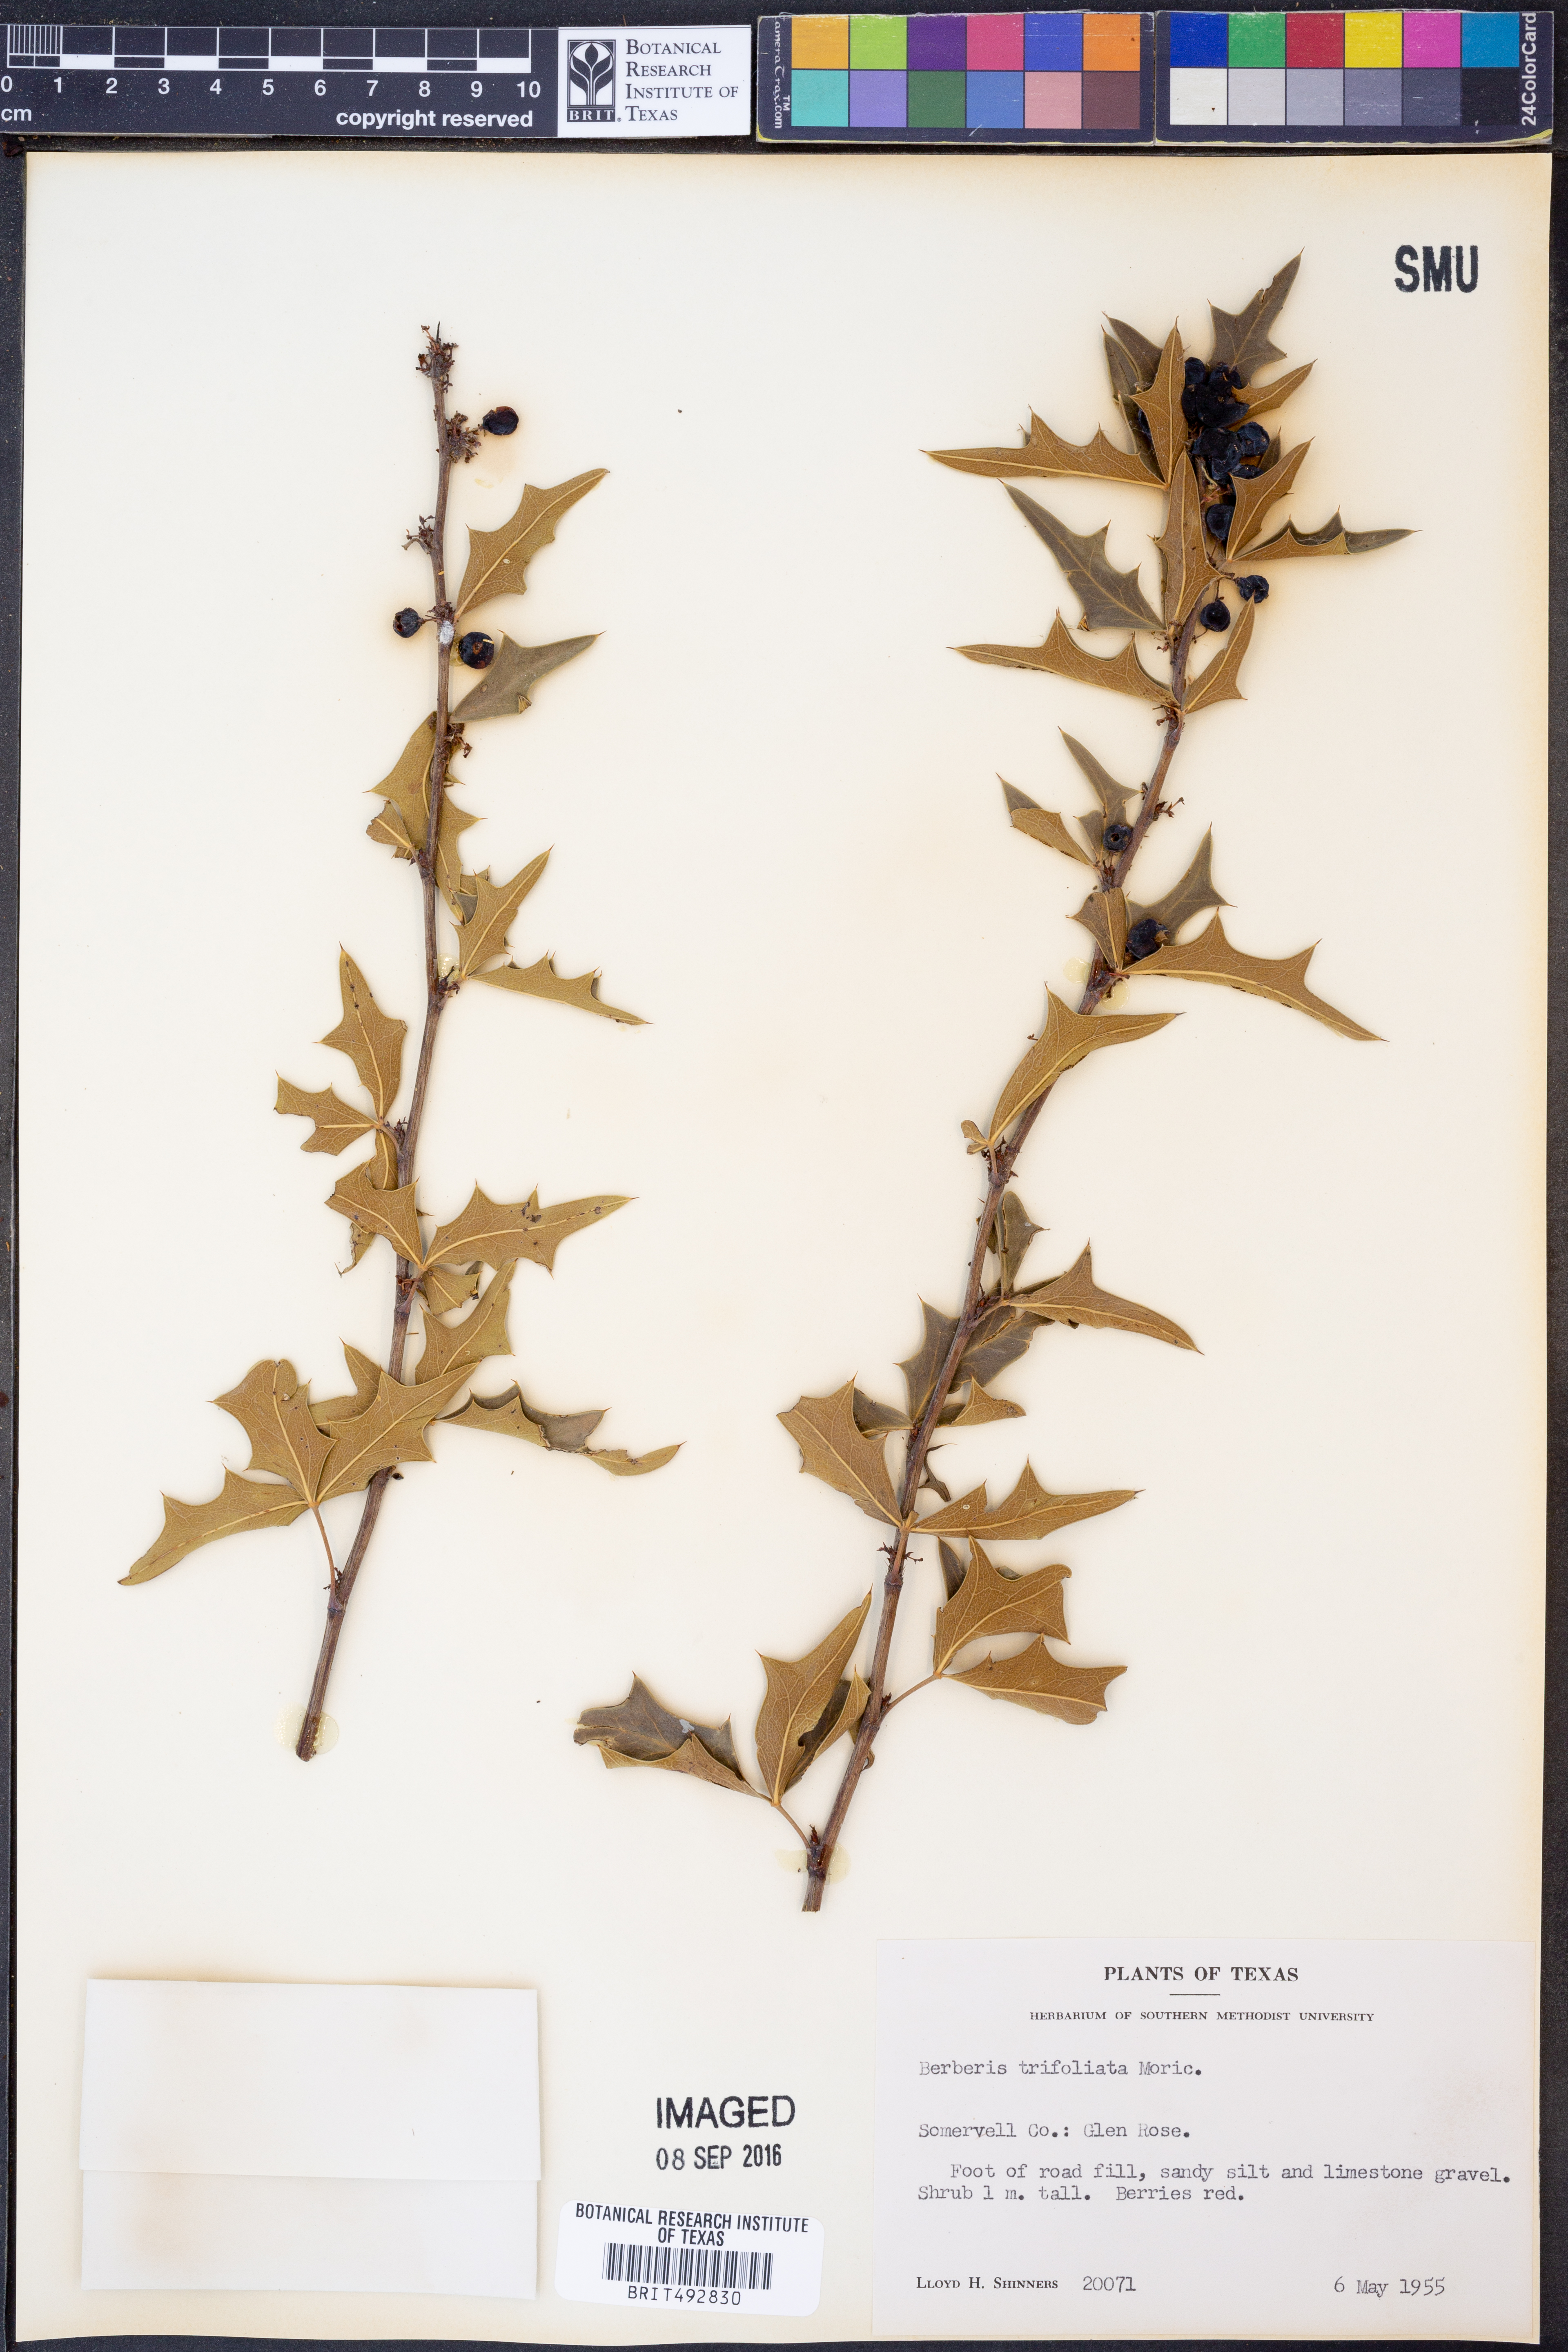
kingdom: Plantae
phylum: Tracheophyta
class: Magnoliopsida
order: Ranunculales
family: Berberidaceae
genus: Alloberberis
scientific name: Alloberberis fremontii
